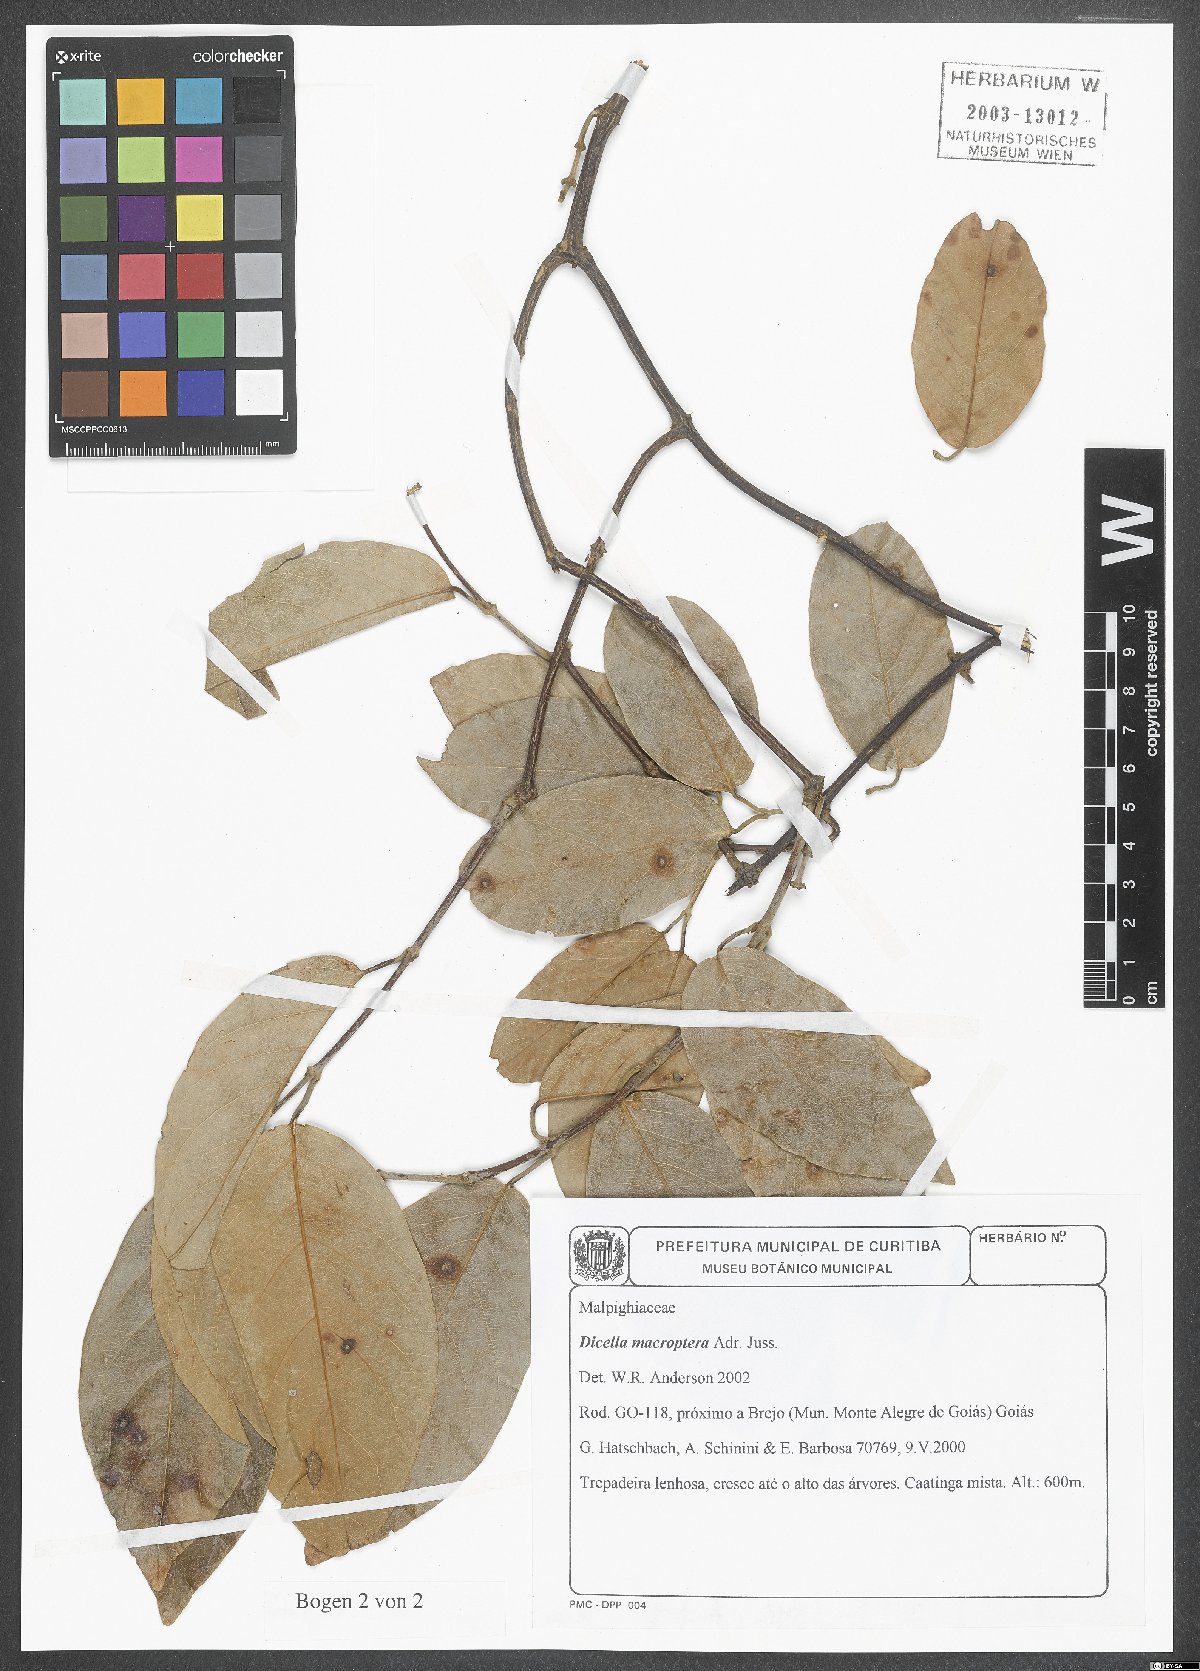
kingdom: Plantae
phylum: Tracheophyta
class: Magnoliopsida
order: Malpighiales
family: Malpighiaceae
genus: Dicella
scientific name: Dicella macroptera
